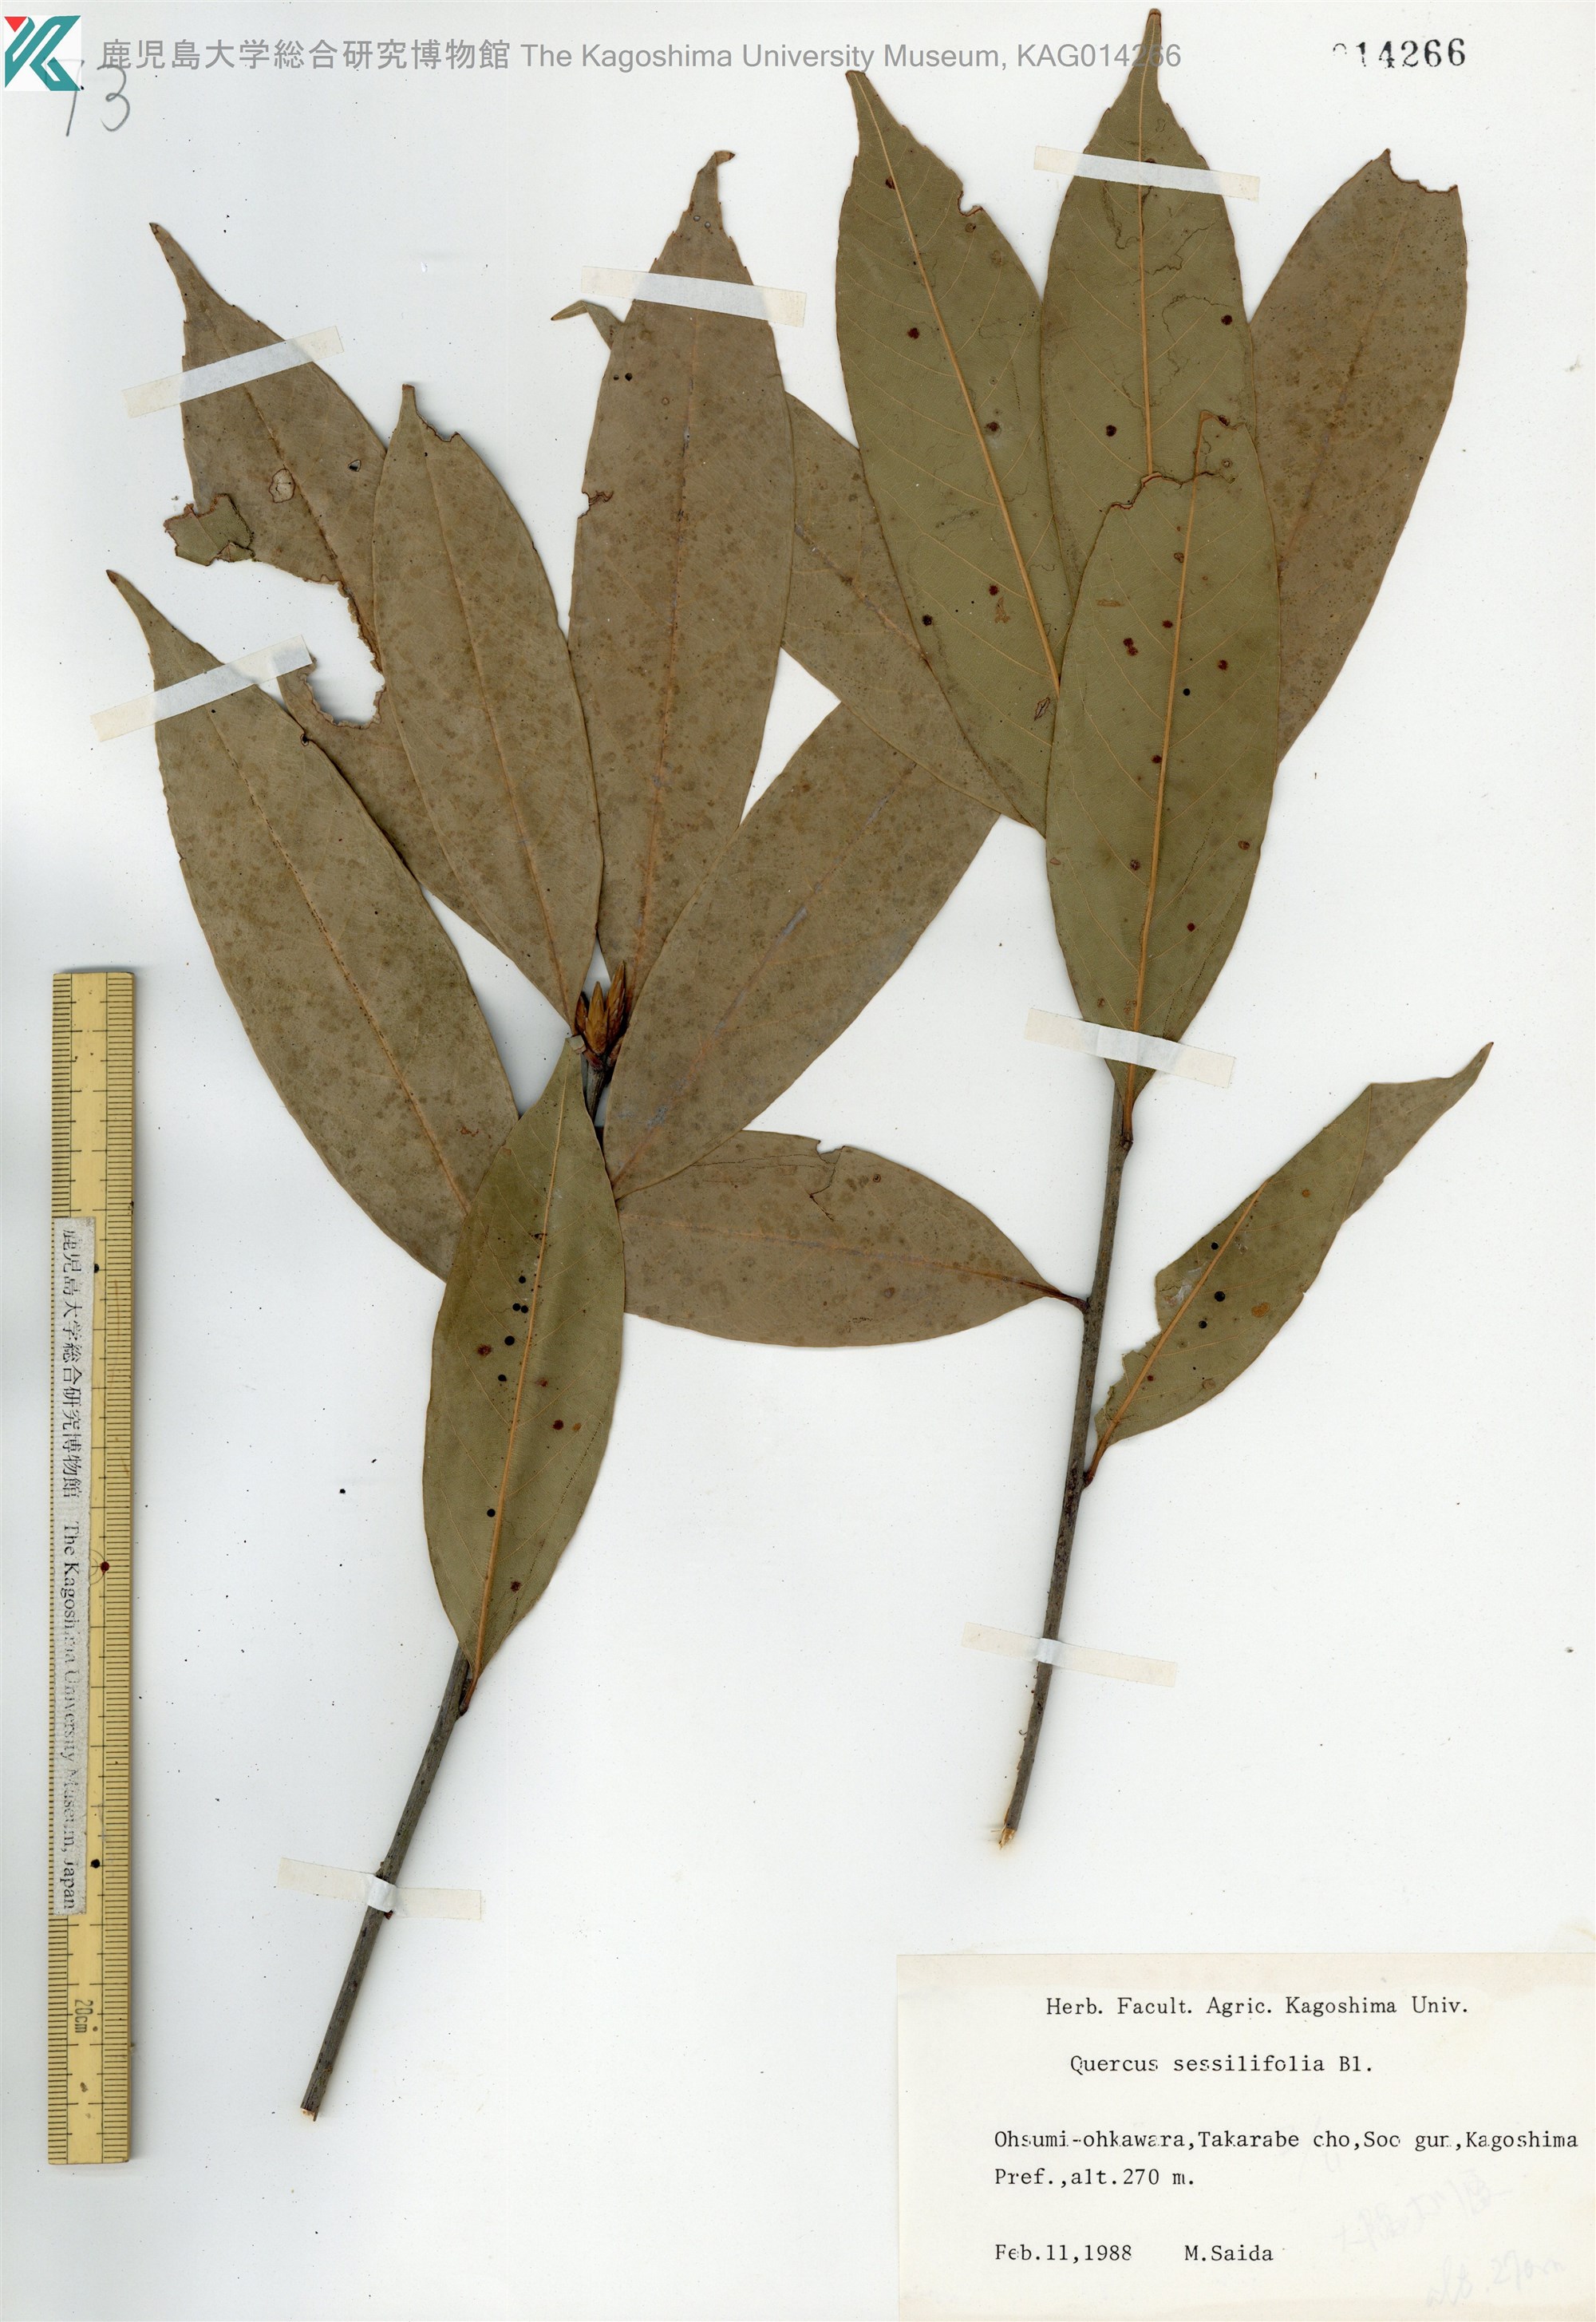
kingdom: Plantae
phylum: Tracheophyta
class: Magnoliopsida
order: Fagales
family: Fagaceae
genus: Quercus
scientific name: Quercus sessilifolia
